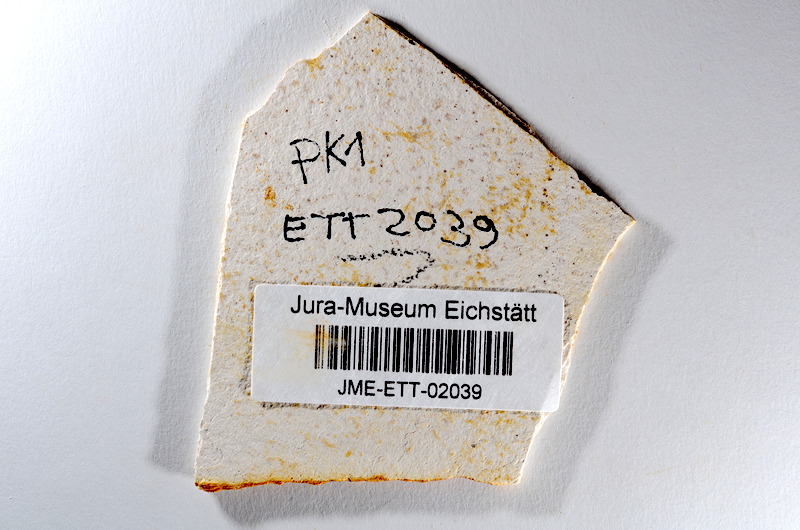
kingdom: Animalia
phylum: Chordata
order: Salmoniformes
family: Orthogonikleithridae
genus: Orthogonikleithrus
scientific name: Orthogonikleithrus hoelli
